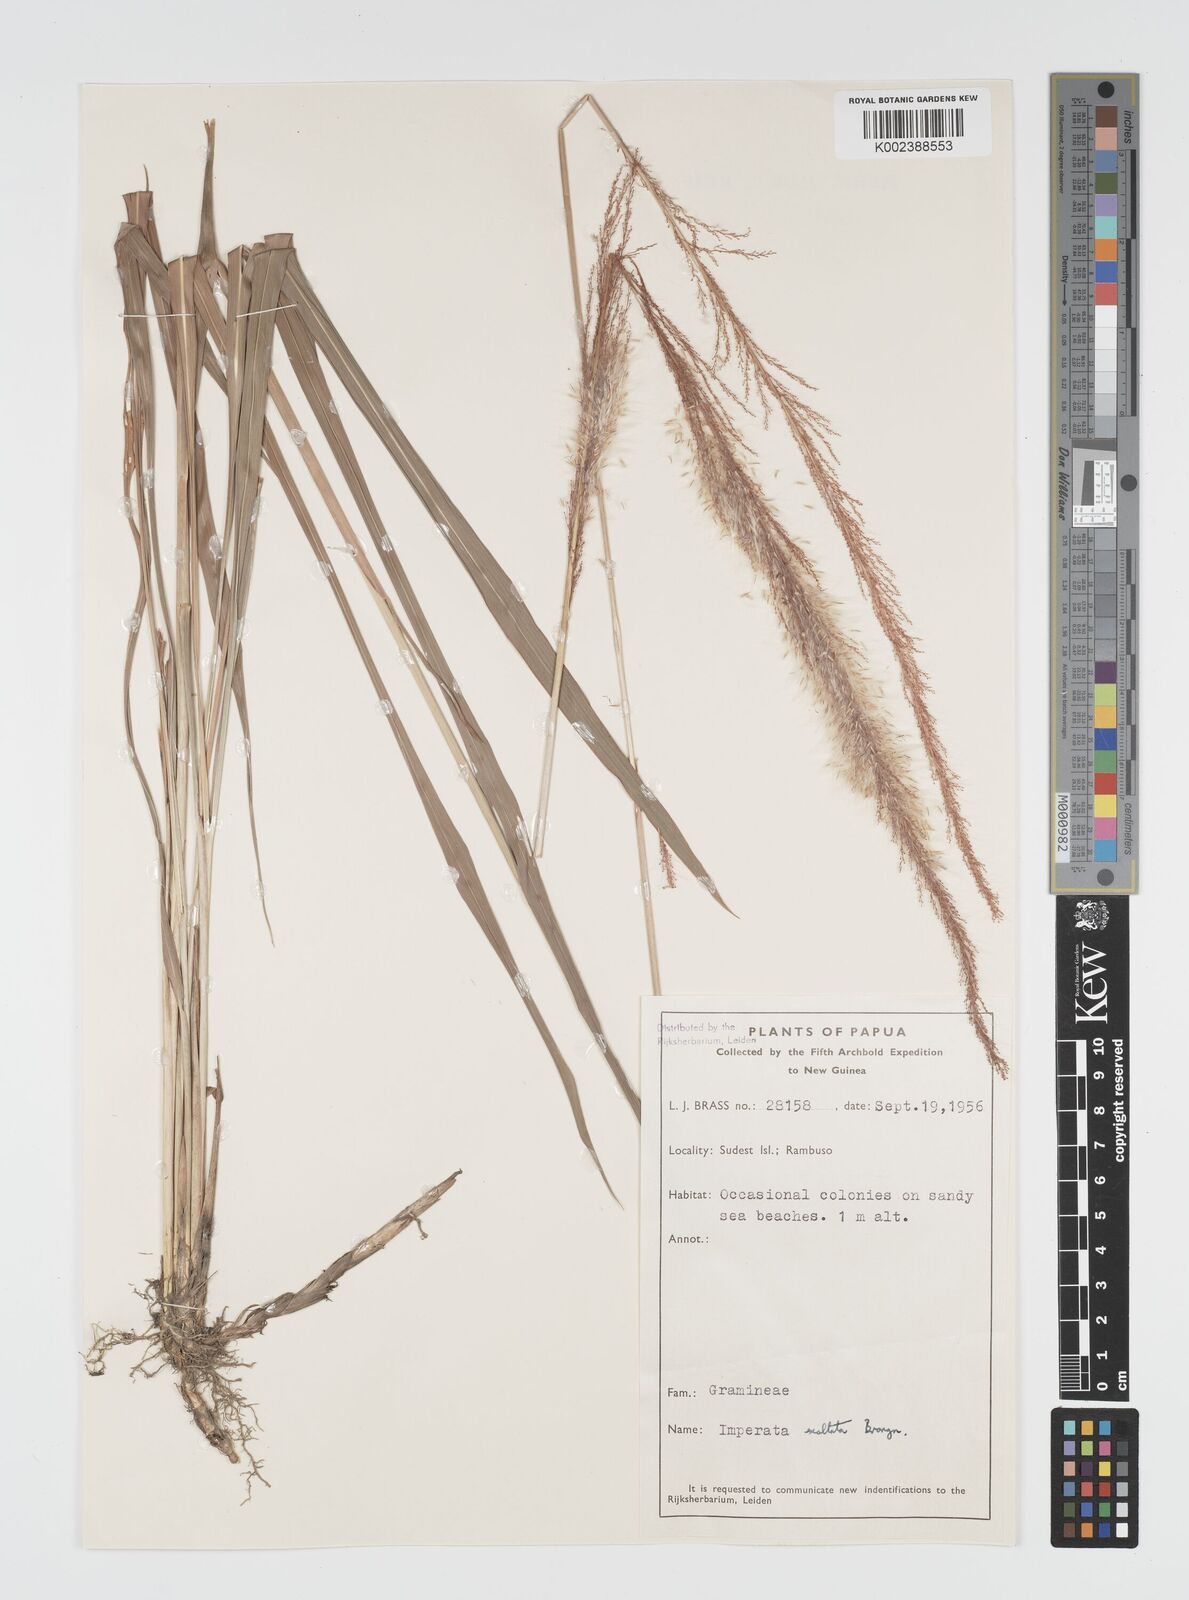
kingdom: Plantae
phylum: Tracheophyta
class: Liliopsida
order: Poales
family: Poaceae
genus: Imperata
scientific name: Imperata conferta
